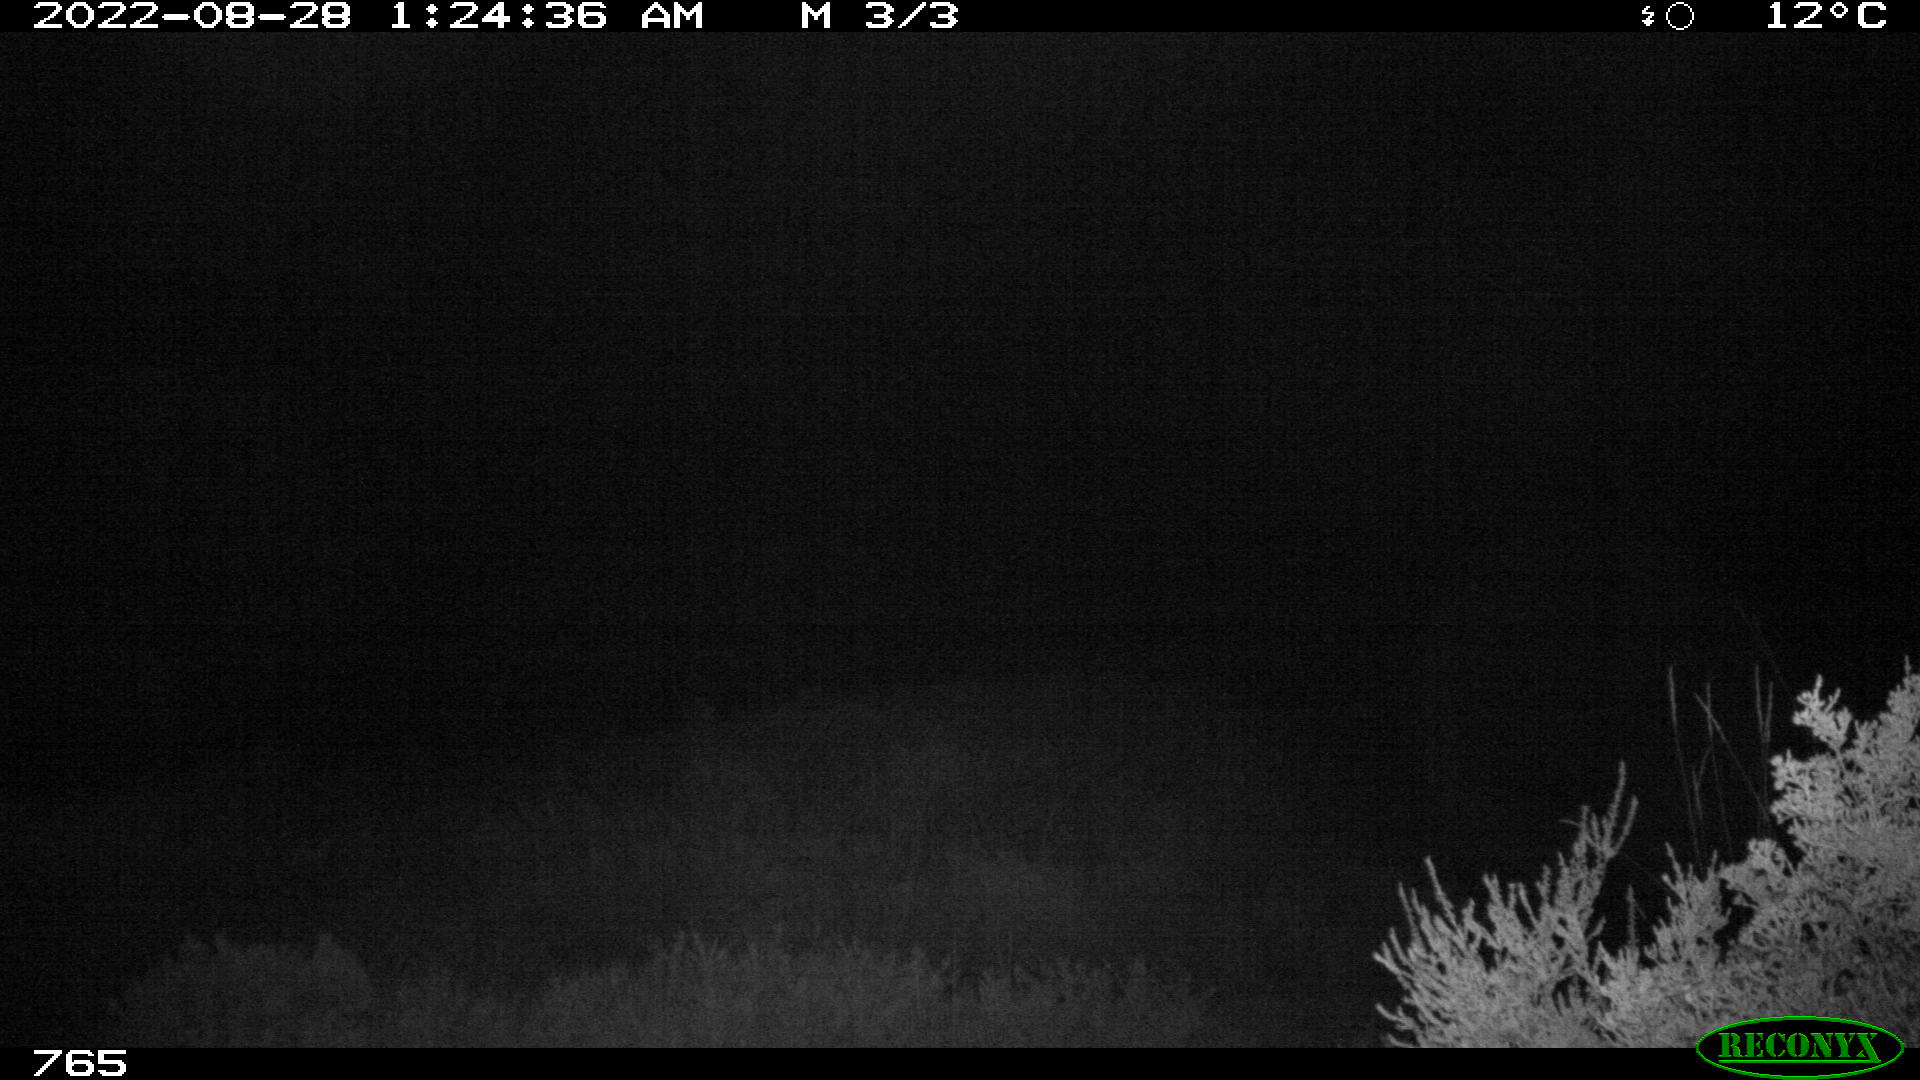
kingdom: Animalia
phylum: Chordata
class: Mammalia
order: Artiodactyla
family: Suidae
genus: Sus
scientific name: Sus scrofa
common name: Wild boar
